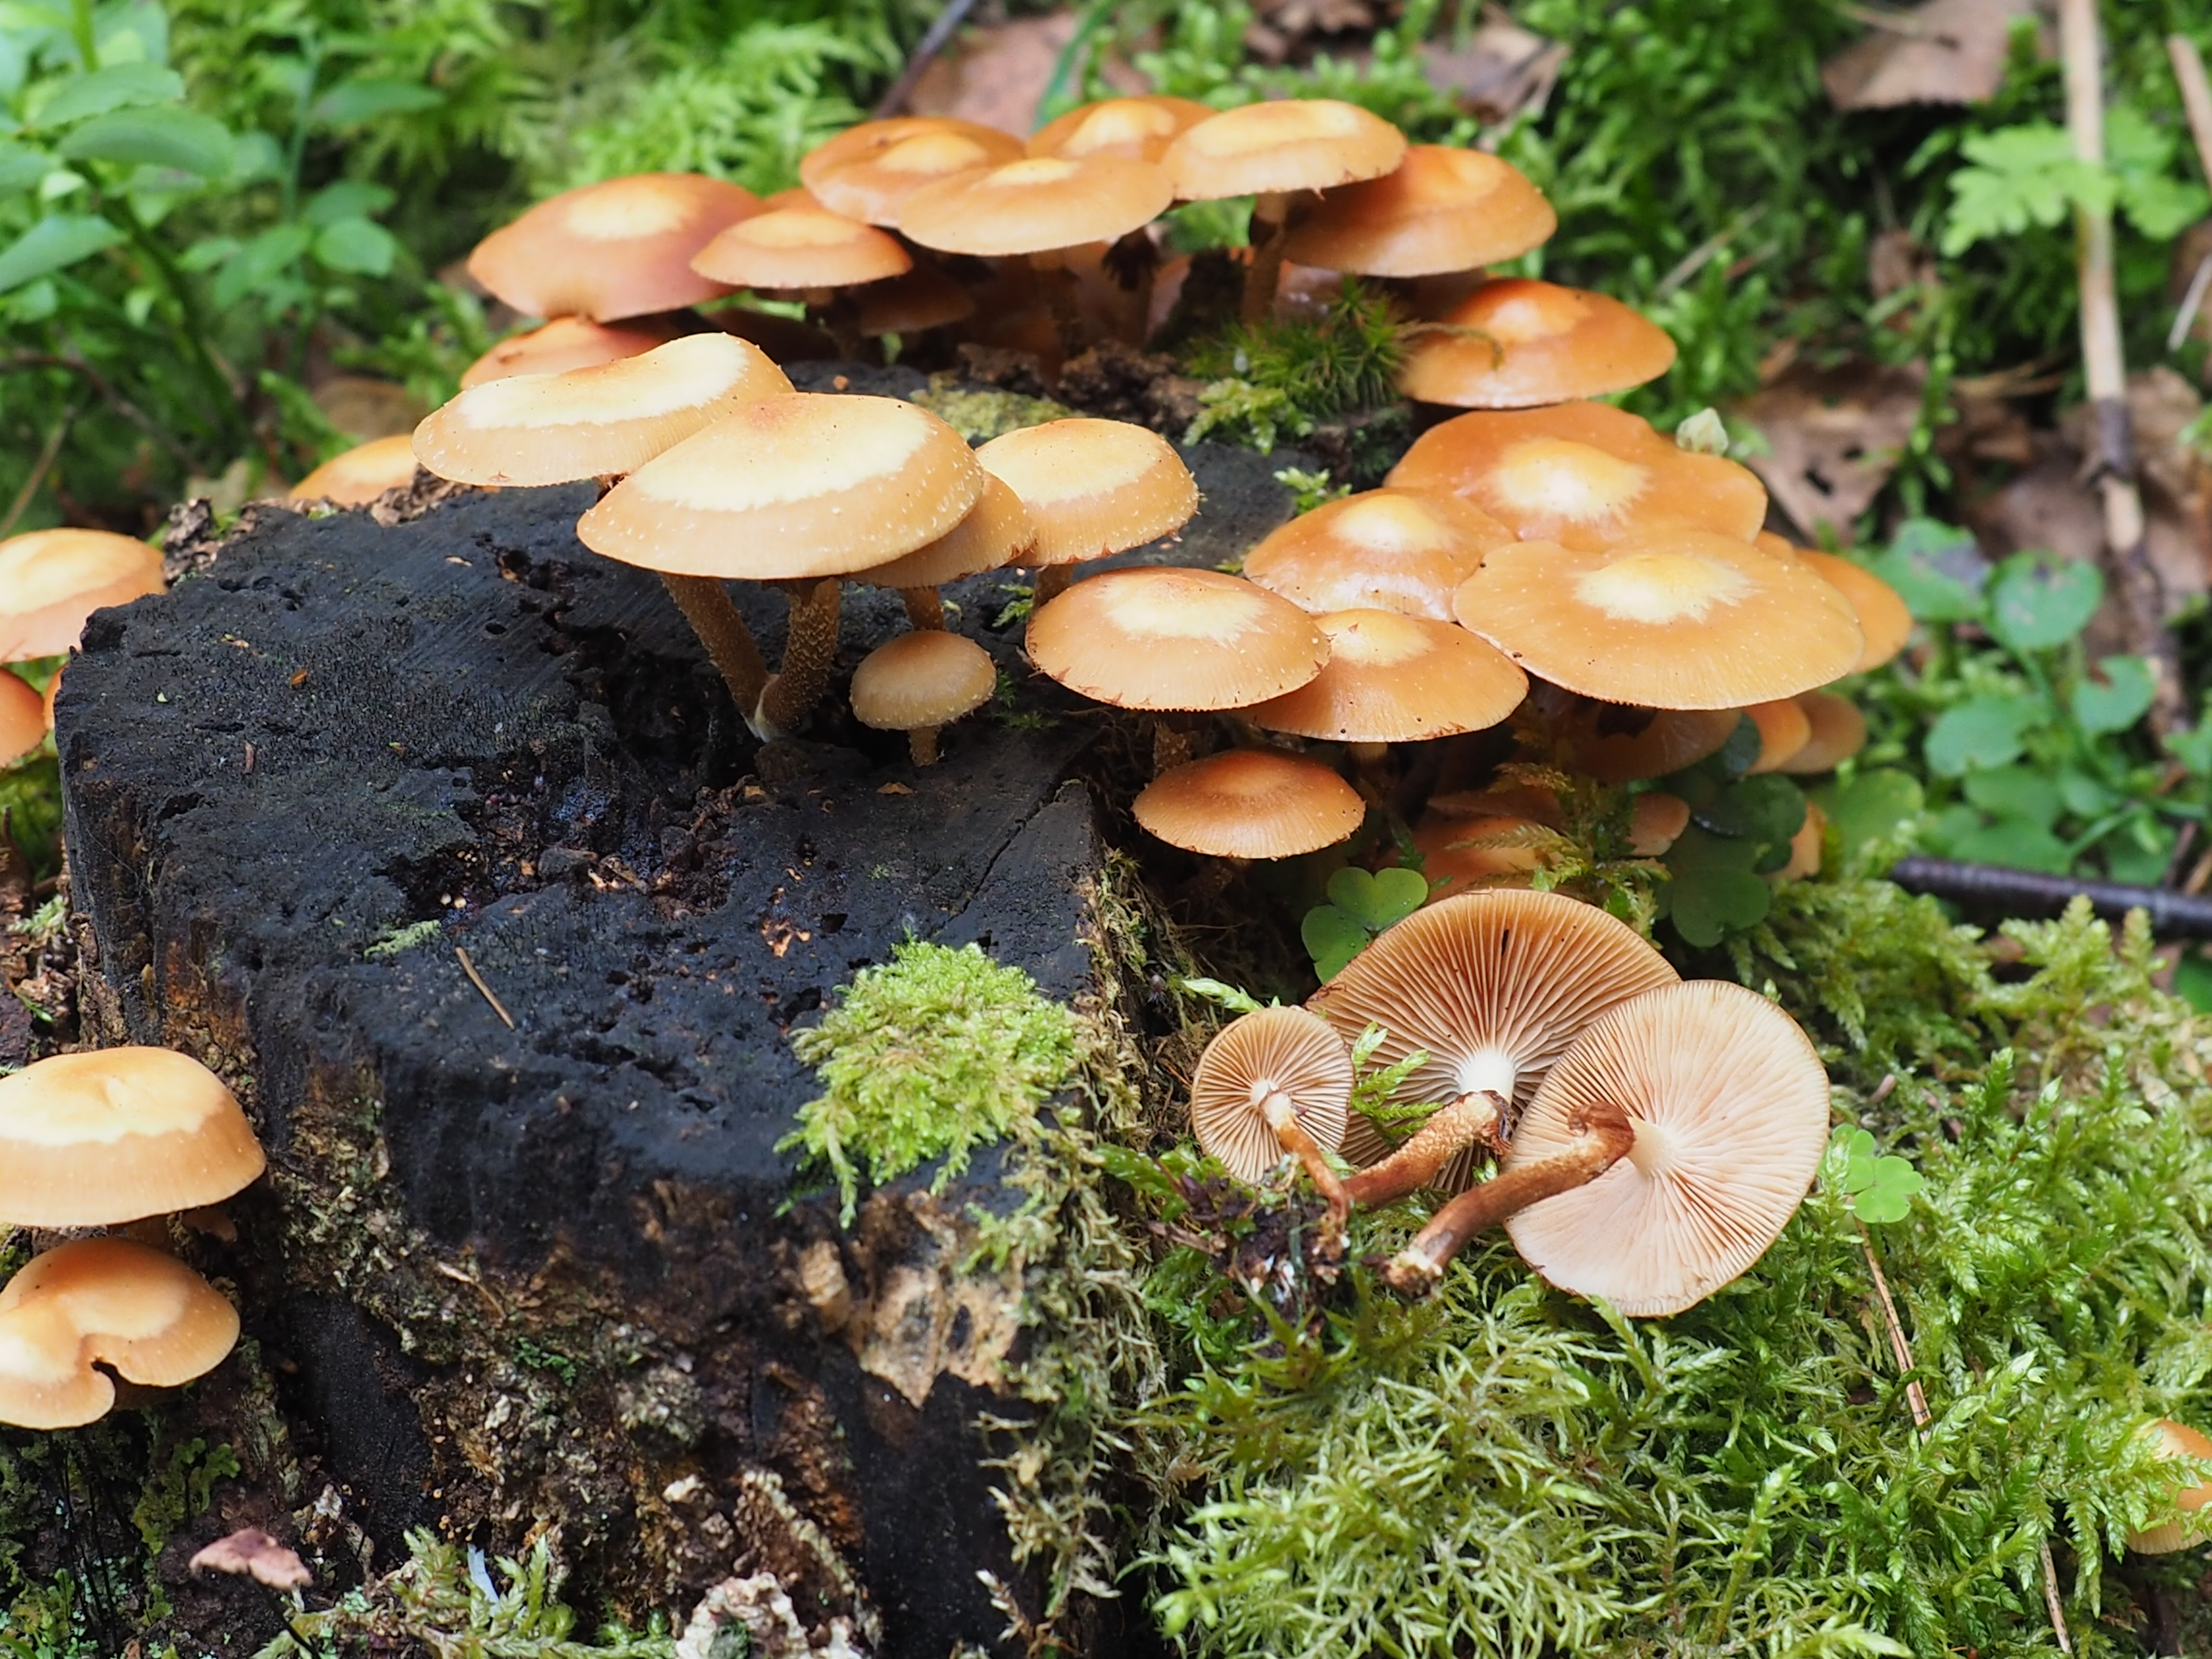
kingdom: Fungi
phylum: Basidiomycota
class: Agaricomycetes
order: Agaricales
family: Strophariaceae
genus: Kuehneromyces
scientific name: Kuehneromyces mutabilis
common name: Sheathed woodtuft
